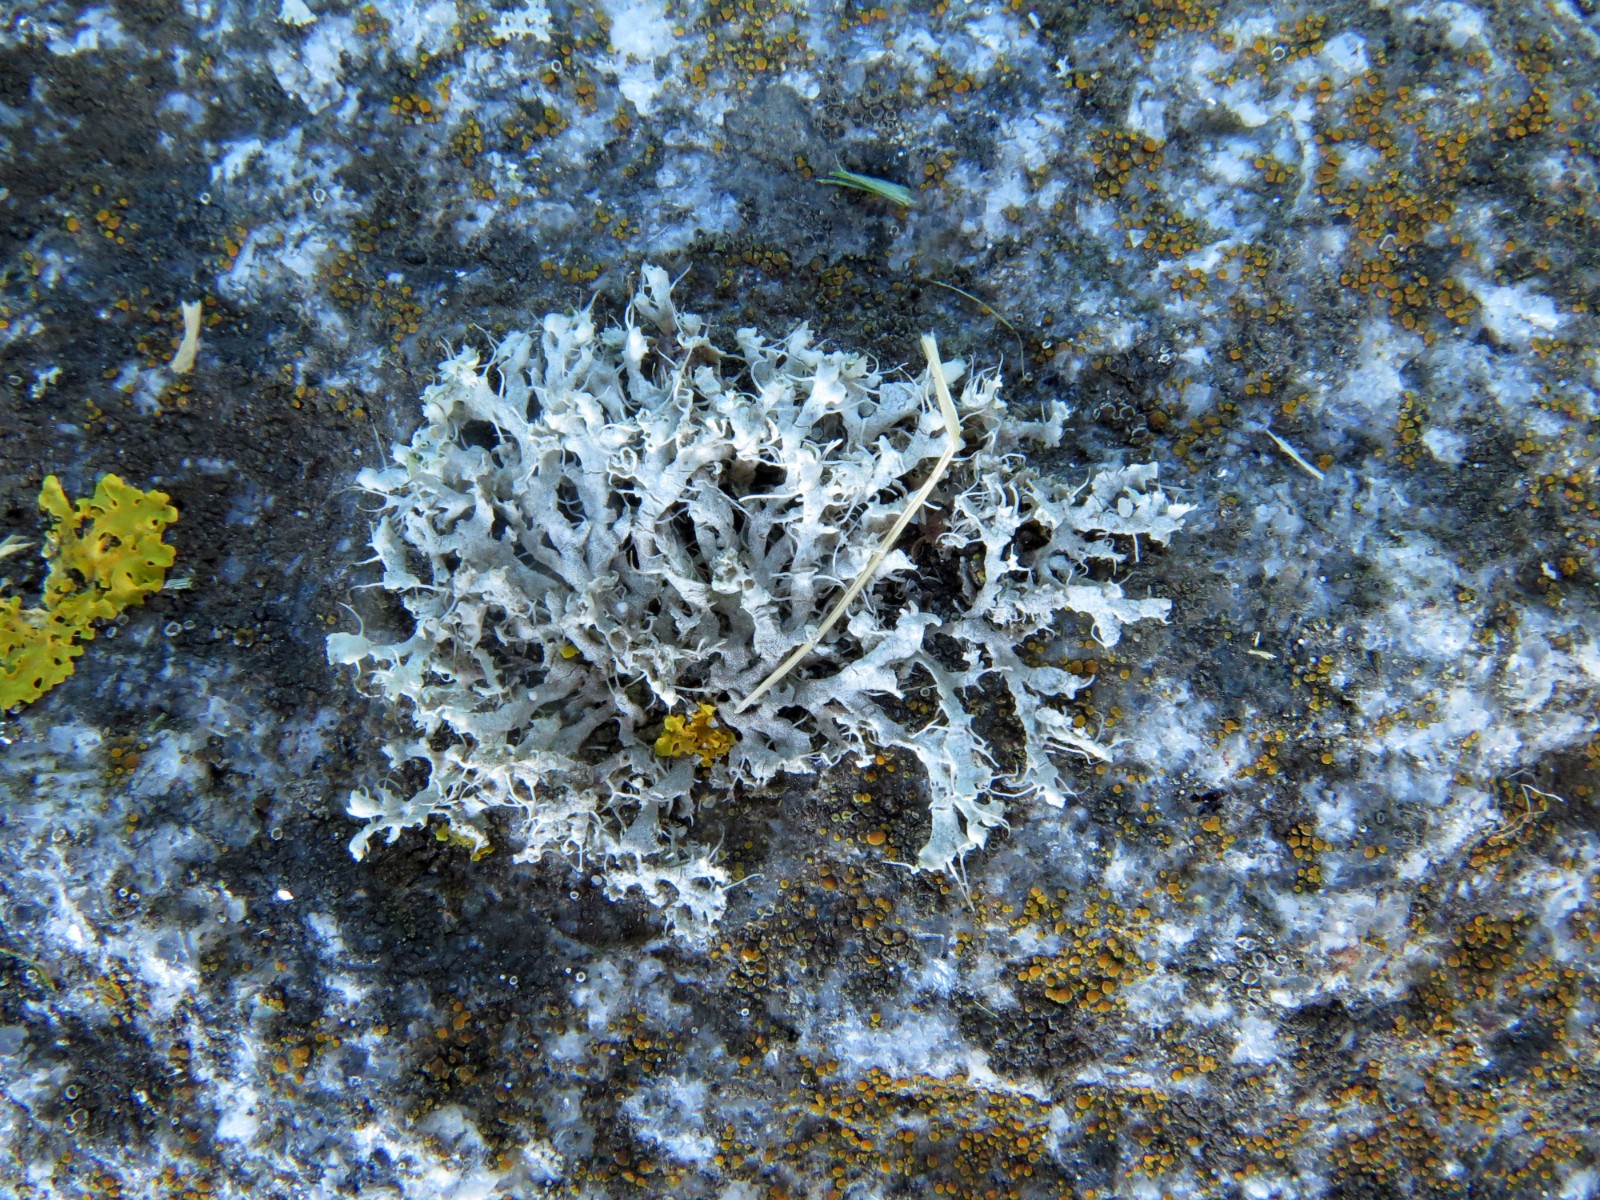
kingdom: Fungi
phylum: Ascomycota
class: Lecanoromycetes
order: Caliciales
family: Physciaceae
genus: Physcia
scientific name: Physcia adscendens
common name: hætte-rosetlav
